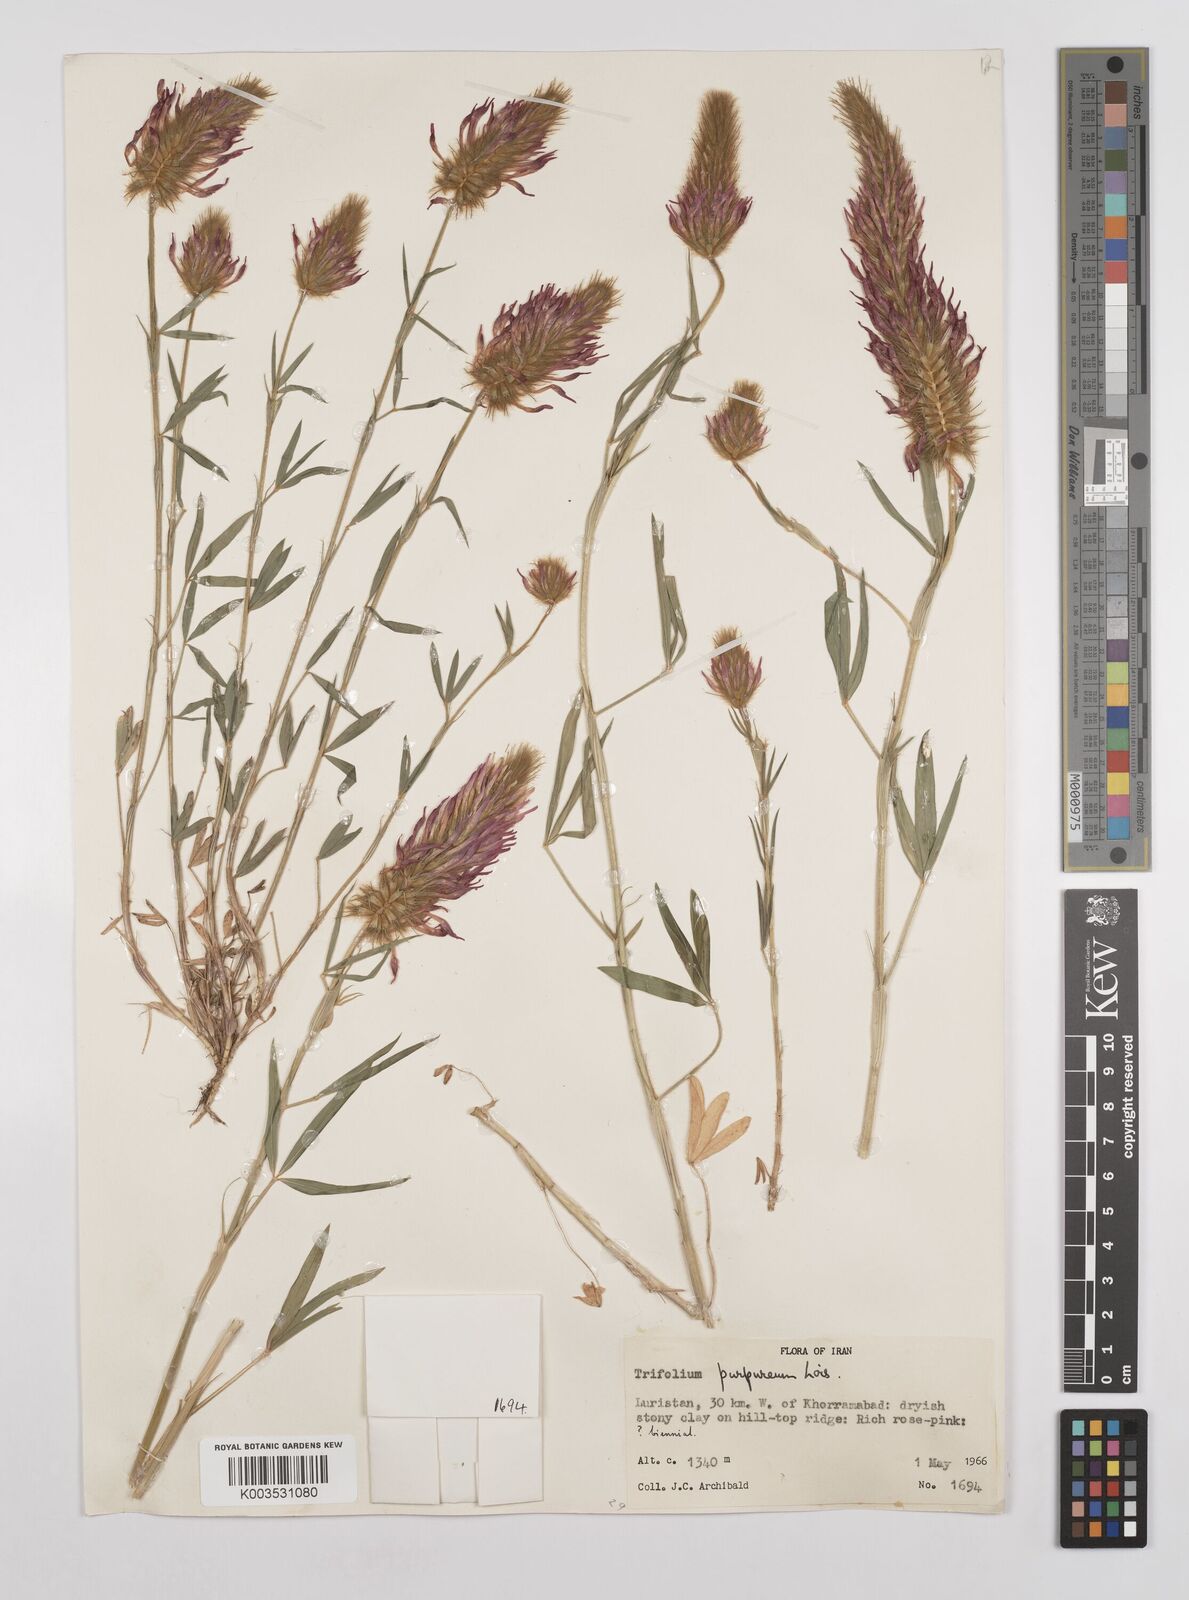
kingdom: Plantae
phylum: Tracheophyta
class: Magnoliopsida
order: Fabales
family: Fabaceae
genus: Trifolium
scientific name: Trifolium purpureum
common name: Purple clover
